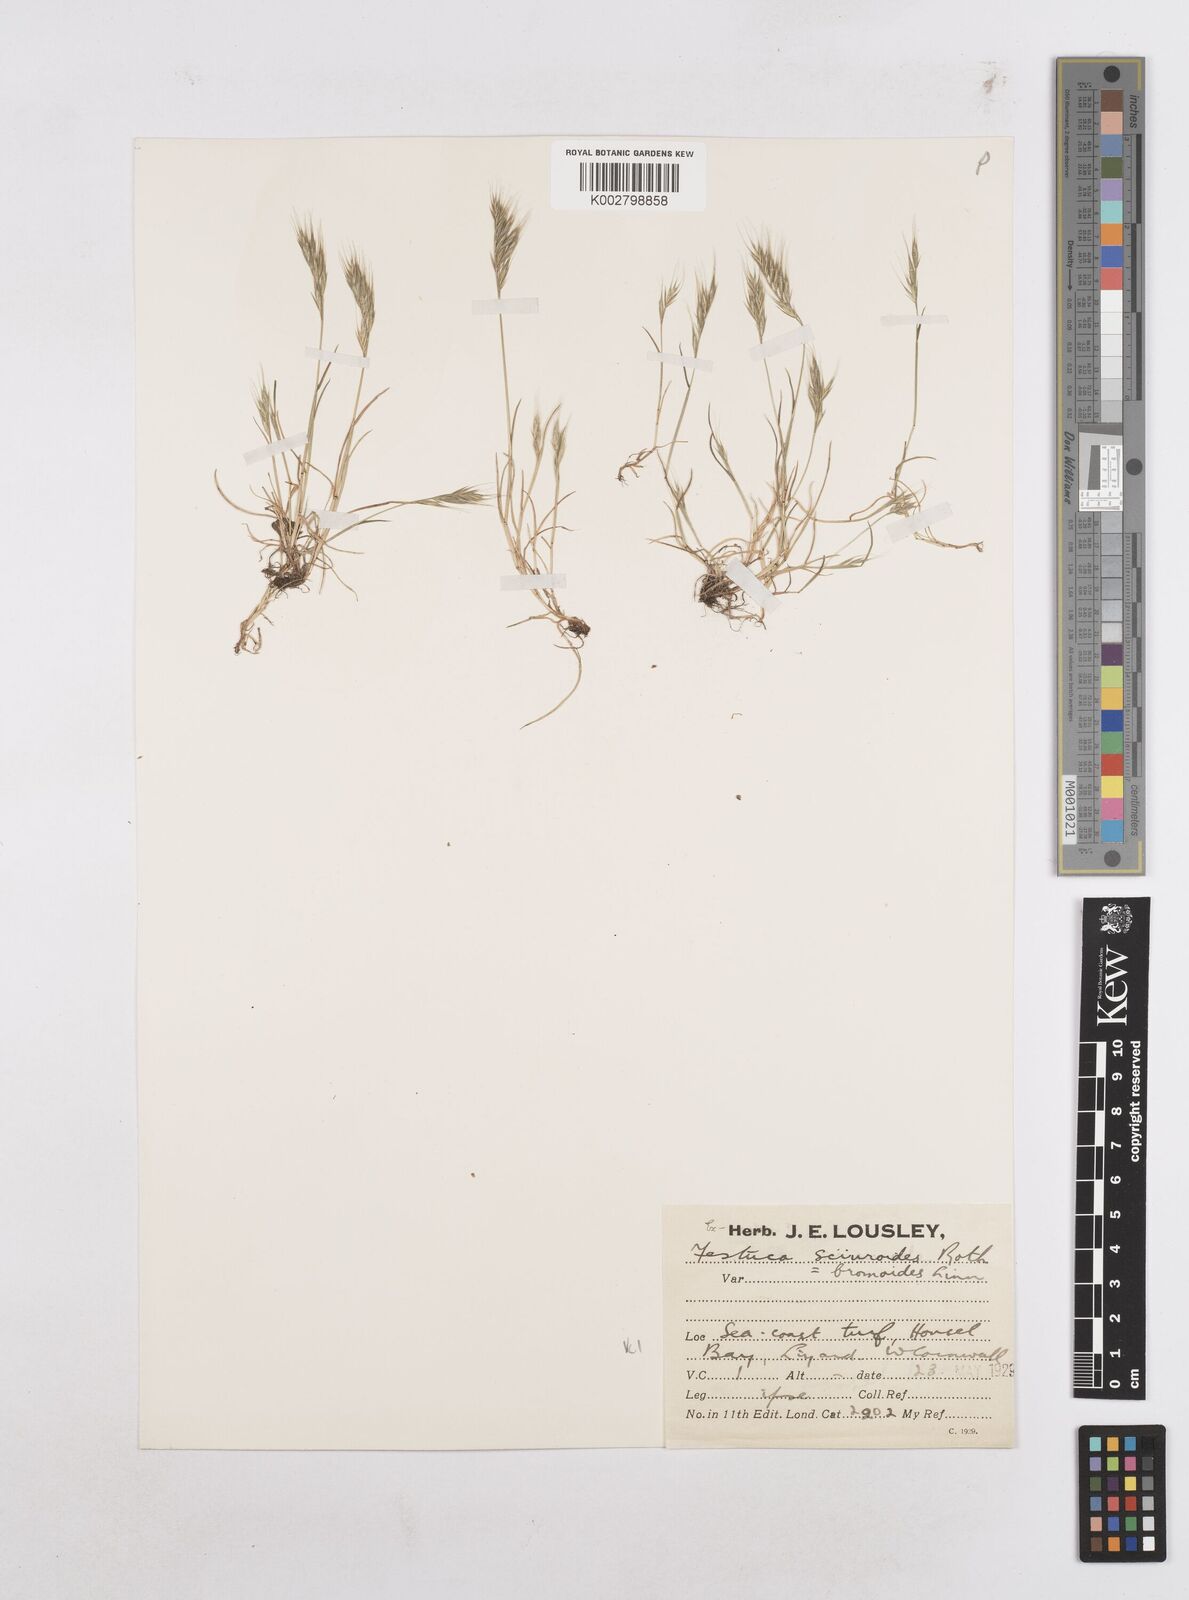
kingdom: Plantae
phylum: Tracheophyta
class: Liliopsida
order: Poales
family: Poaceae
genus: Festuca
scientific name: Festuca bromoides
